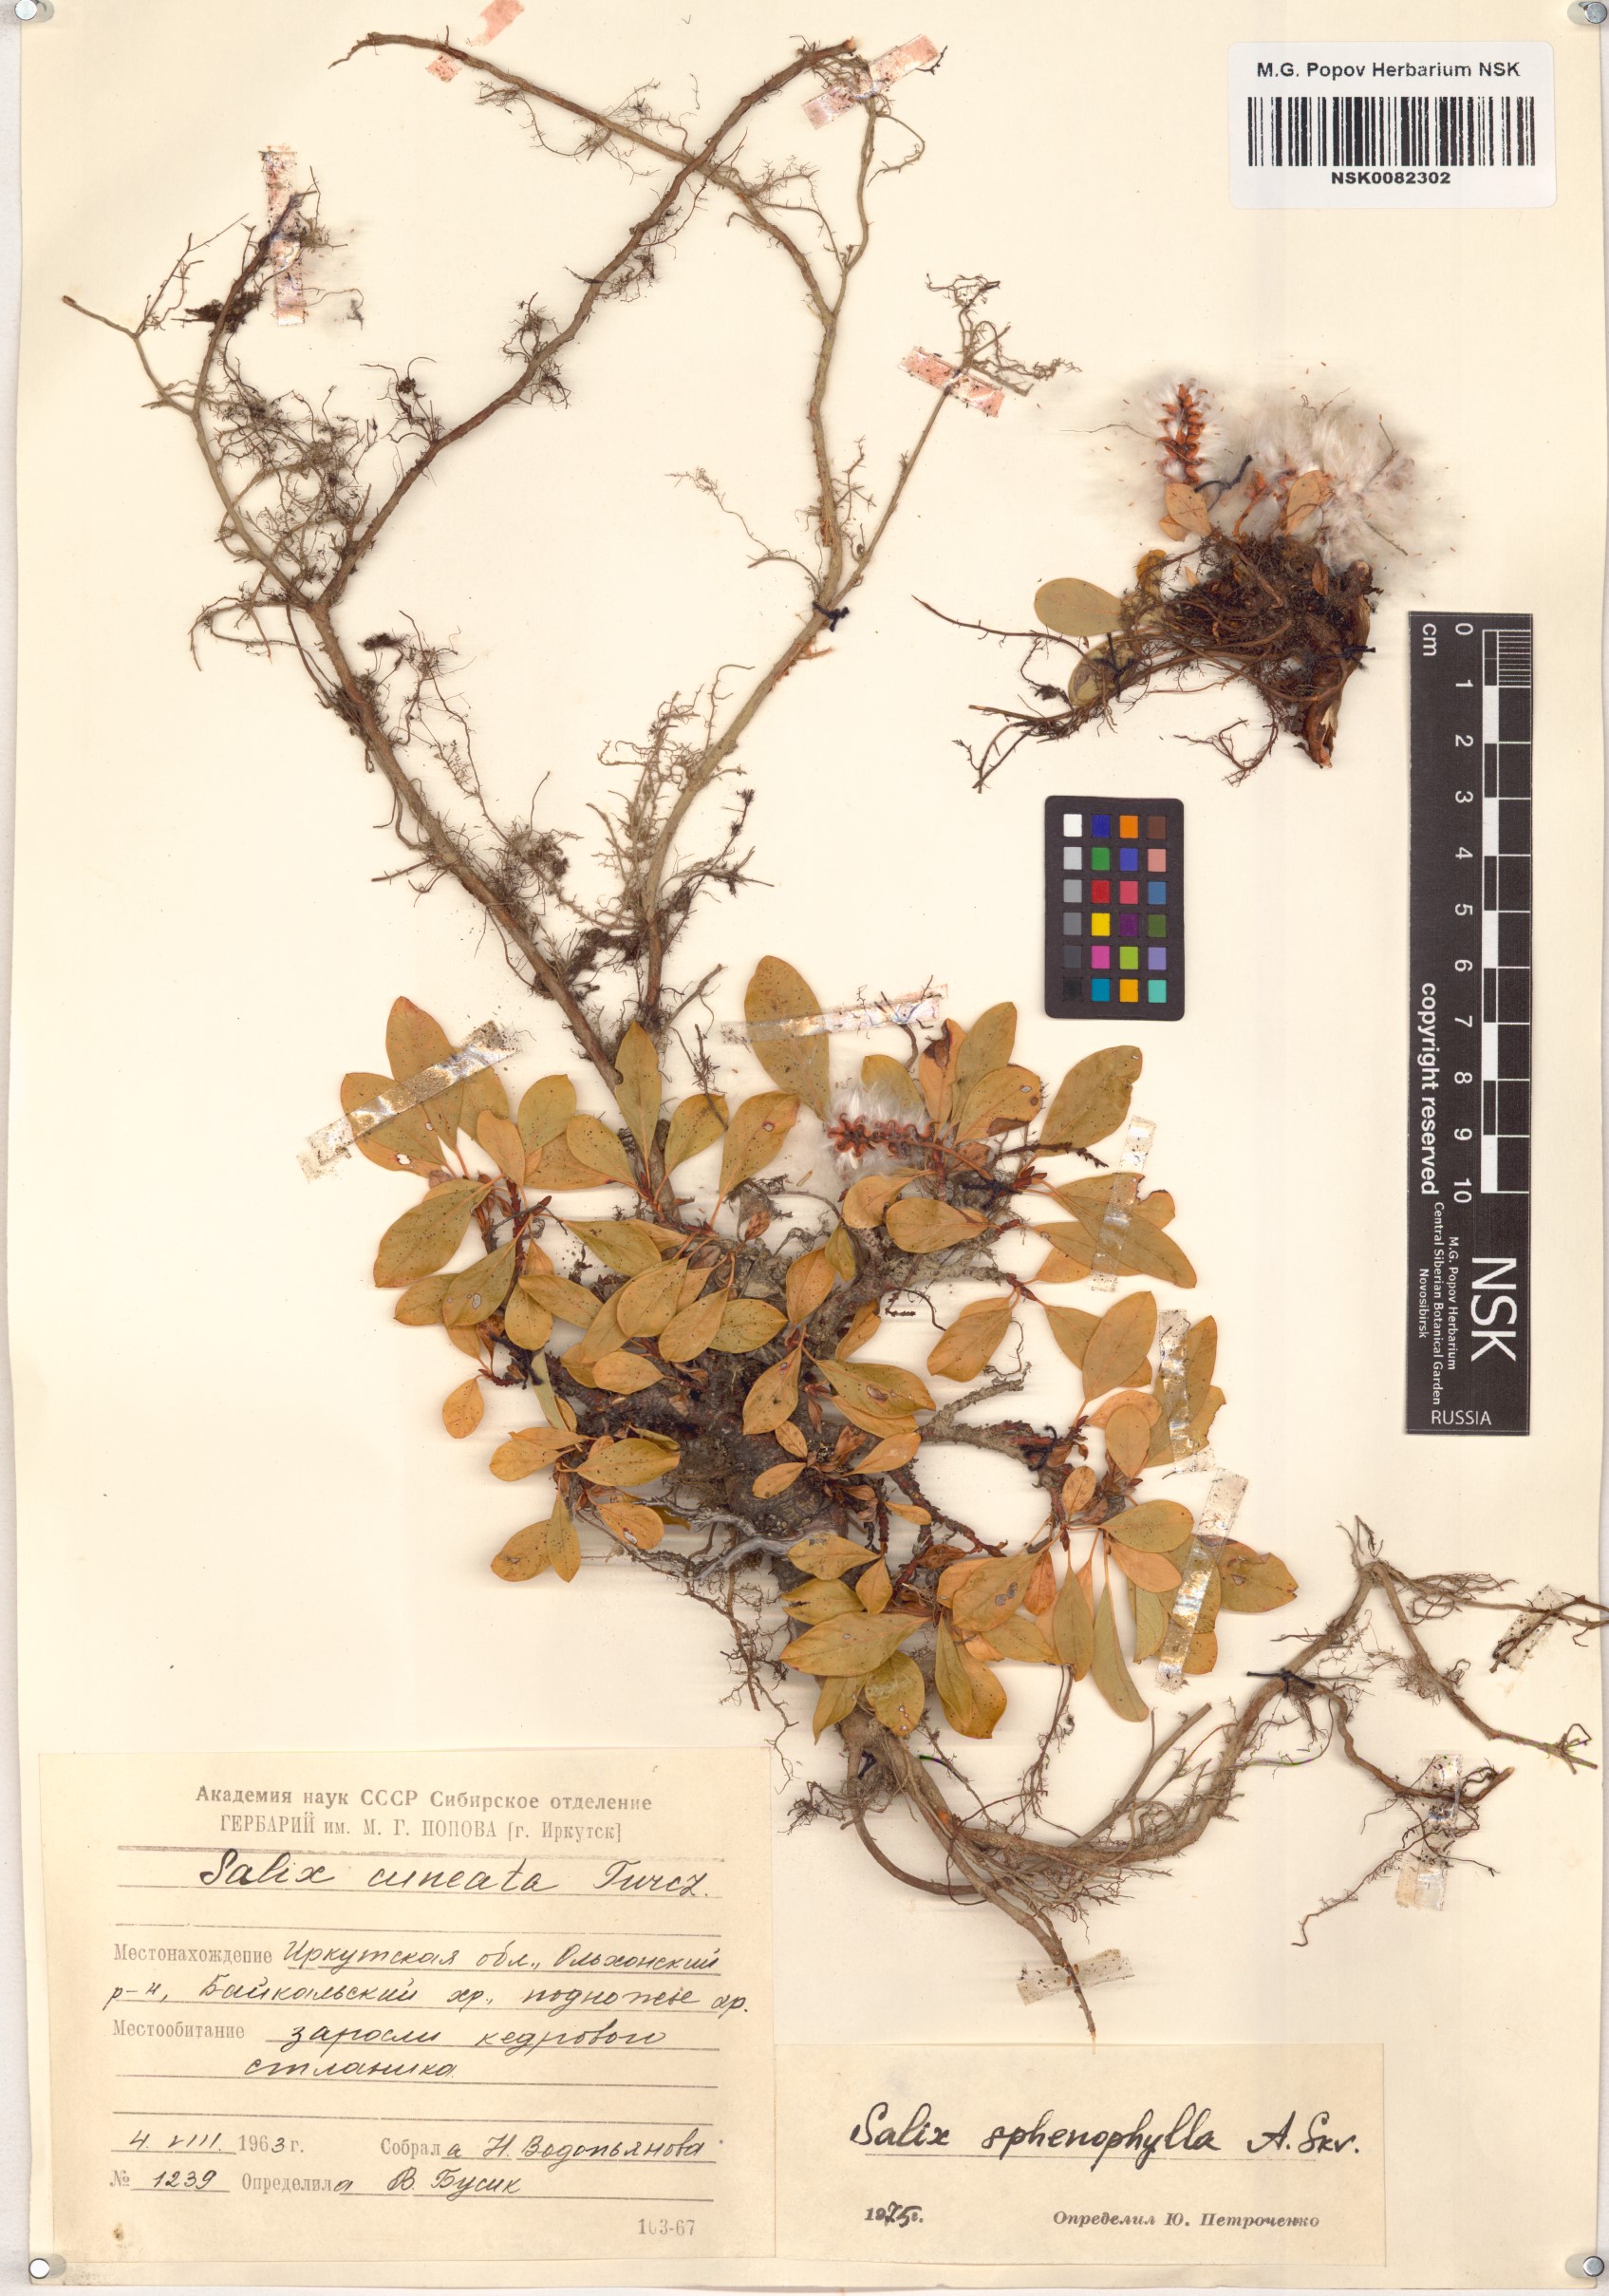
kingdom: Plantae
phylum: Tracheophyta
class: Magnoliopsida
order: Malpighiales
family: Salicaceae
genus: Salix
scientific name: Salix sphenophylla
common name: Wedge-leaved willow
